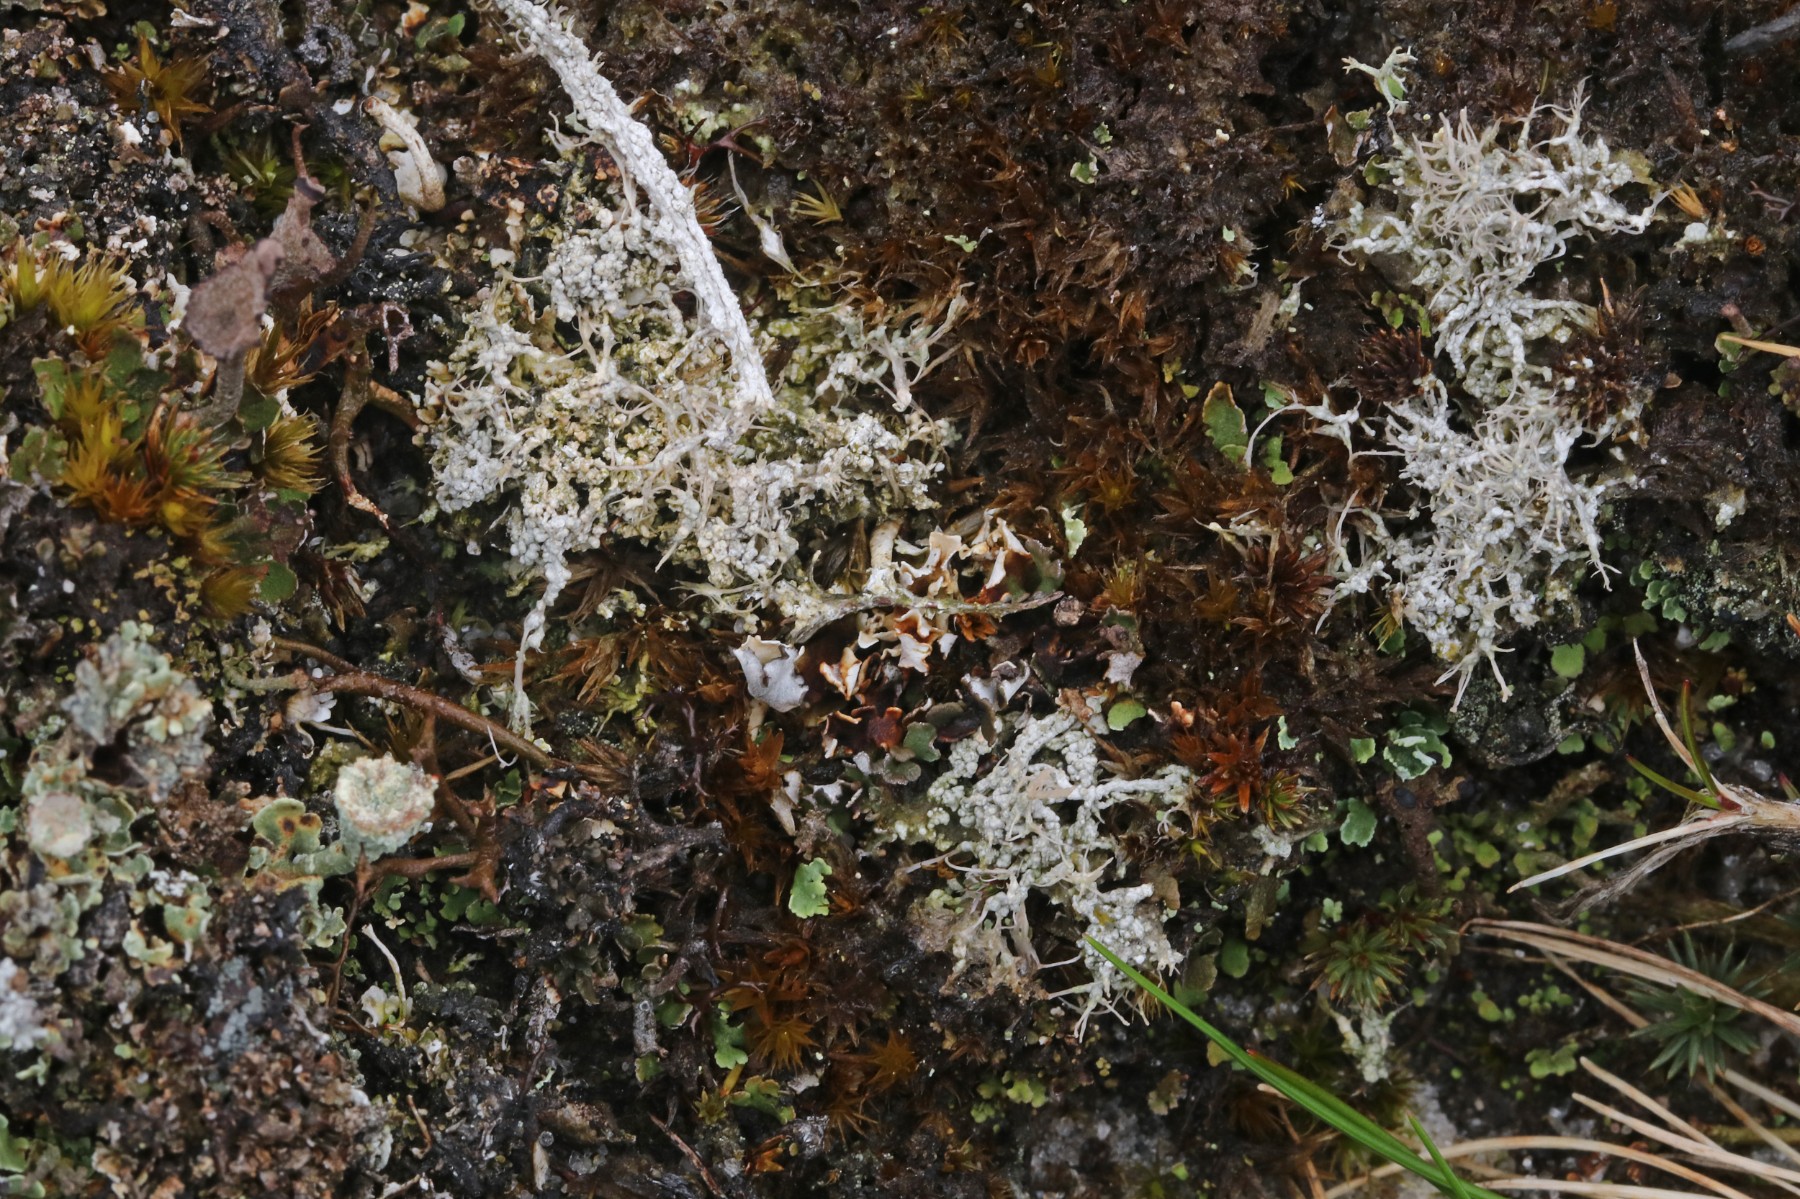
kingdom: Fungi
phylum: Ascomycota
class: Lecanoromycetes
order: Pertusariales
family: Ochrolechiaceae
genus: Ochrolechia
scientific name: Ochrolechia frigida
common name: fjeld-blegskivelav
